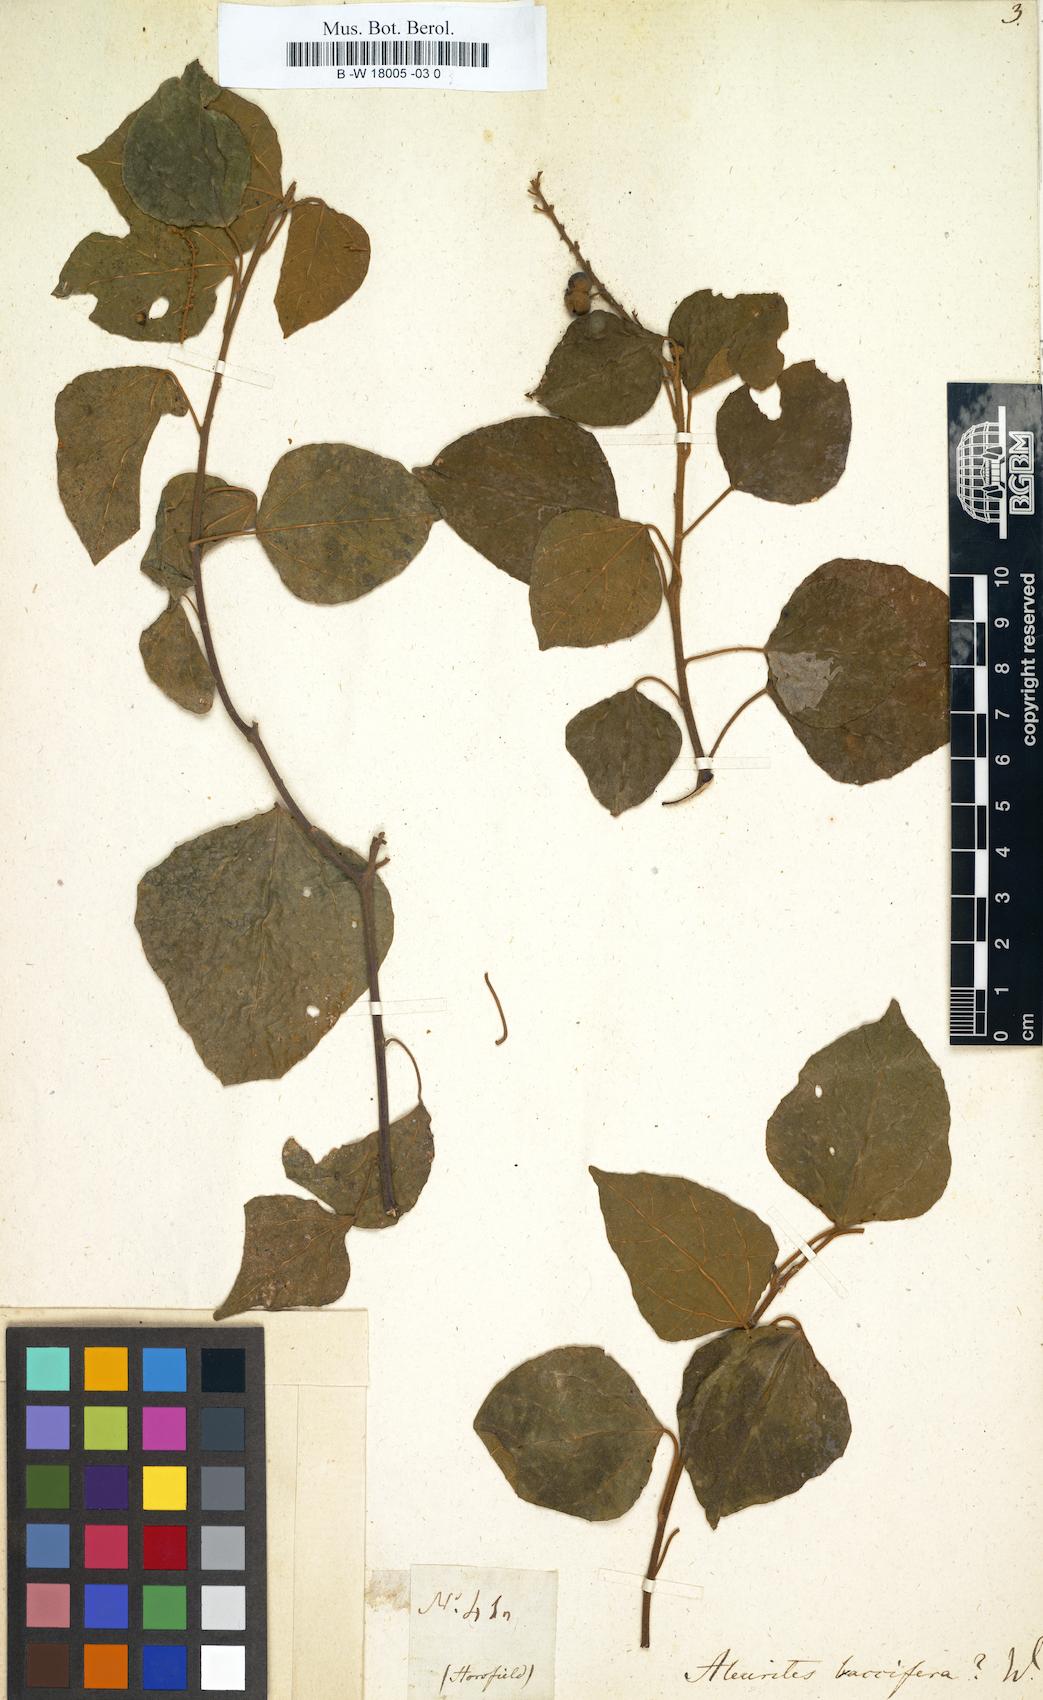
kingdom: Plantae
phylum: Tracheophyta
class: Magnoliopsida
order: Malpighiales
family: Euphorbiaceae
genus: Croton
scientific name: Croton aromaticus
